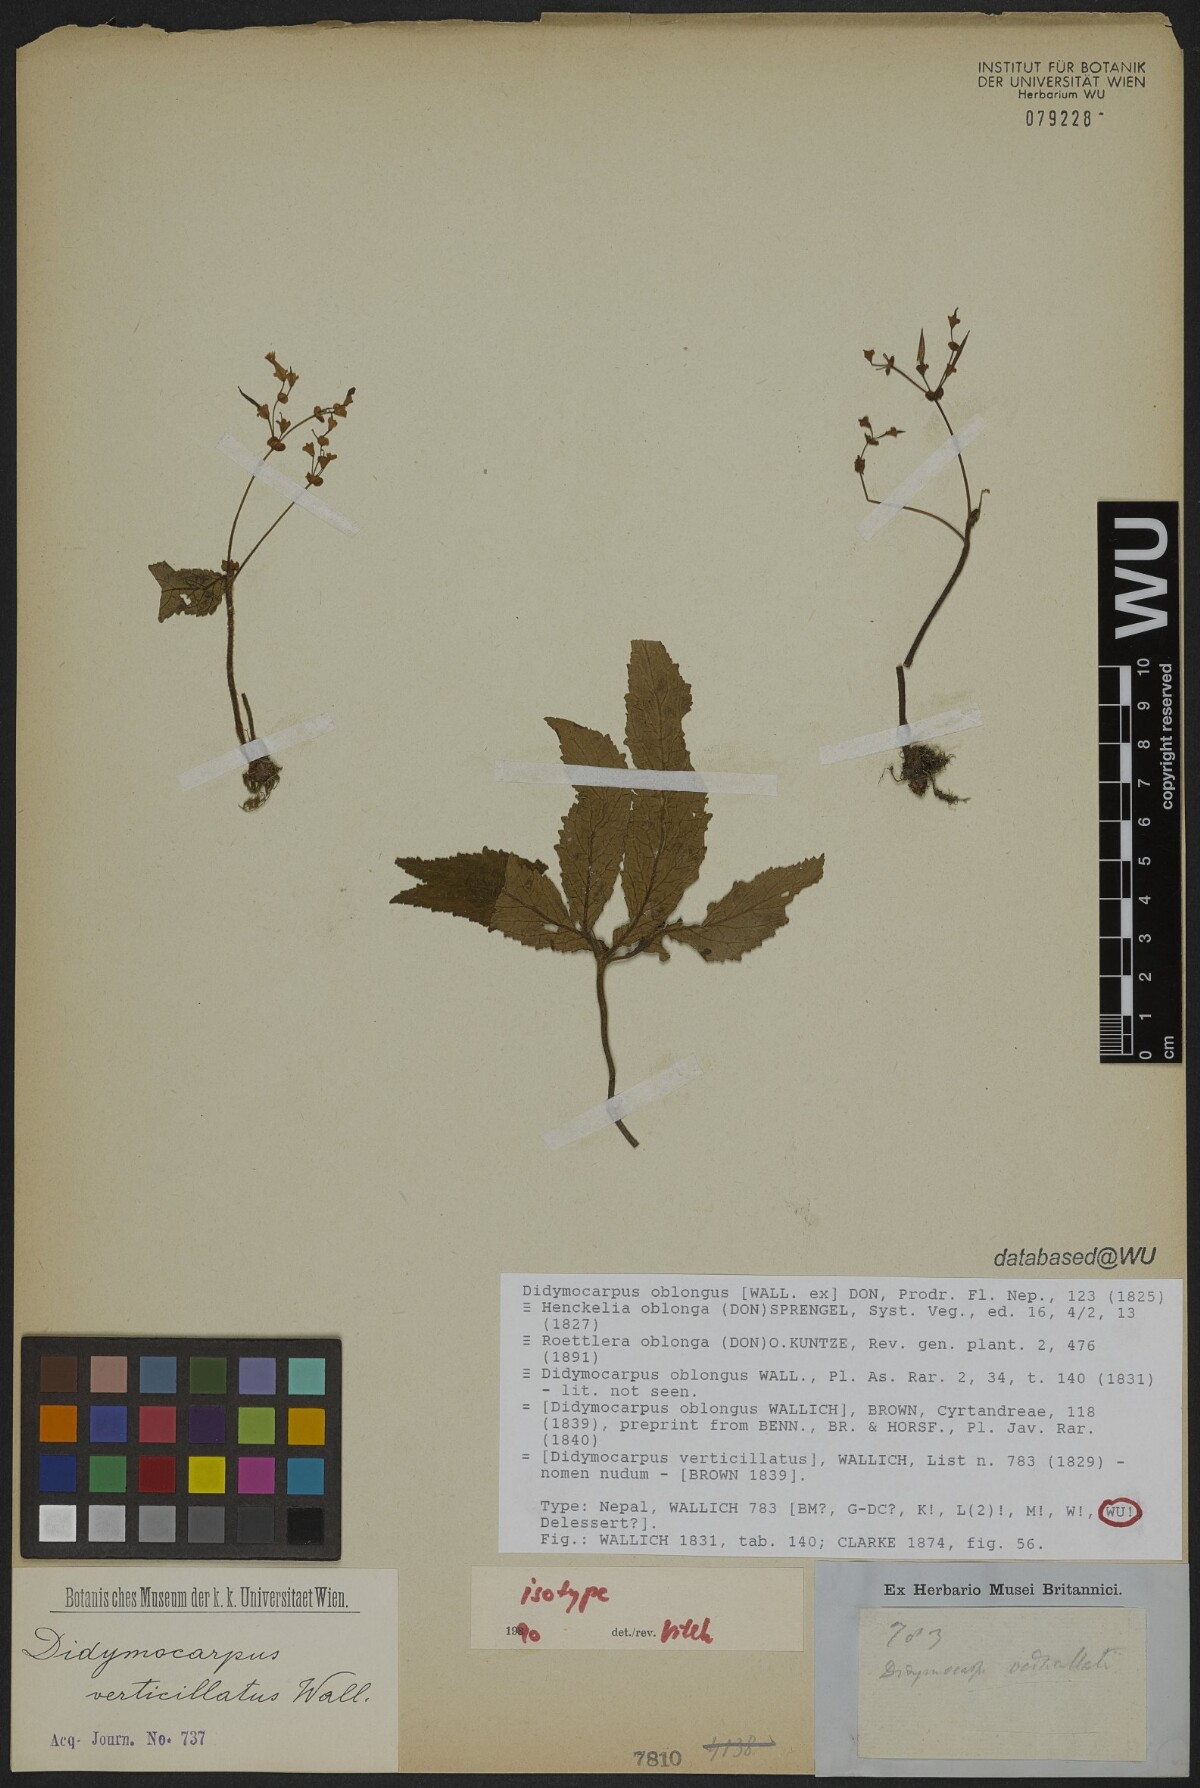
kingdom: Plantae
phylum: Tracheophyta
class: Magnoliopsida
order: Lamiales
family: Gesneriaceae
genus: Didymocarpus
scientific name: Didymocarpus oblongus
